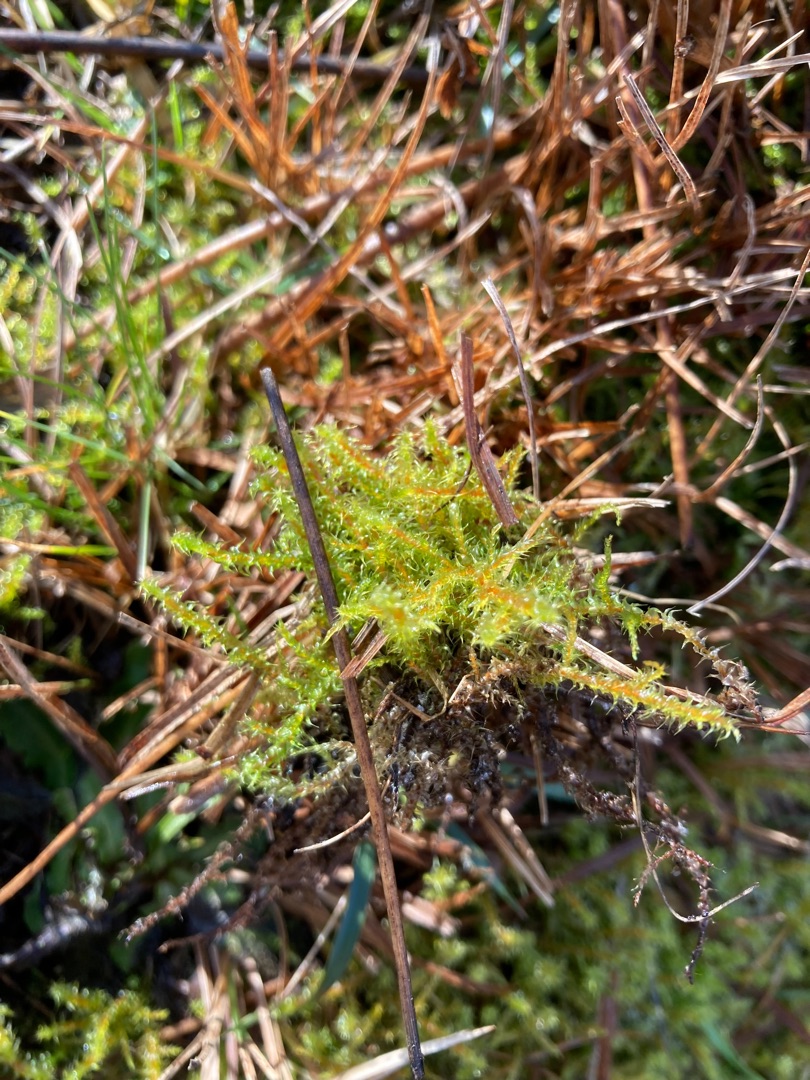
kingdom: Plantae
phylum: Bryophyta
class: Bryopsida
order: Hypnales
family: Hylocomiaceae
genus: Rhytidiadelphus
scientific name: Rhytidiadelphus squarrosus
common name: Plæne-kransemos
